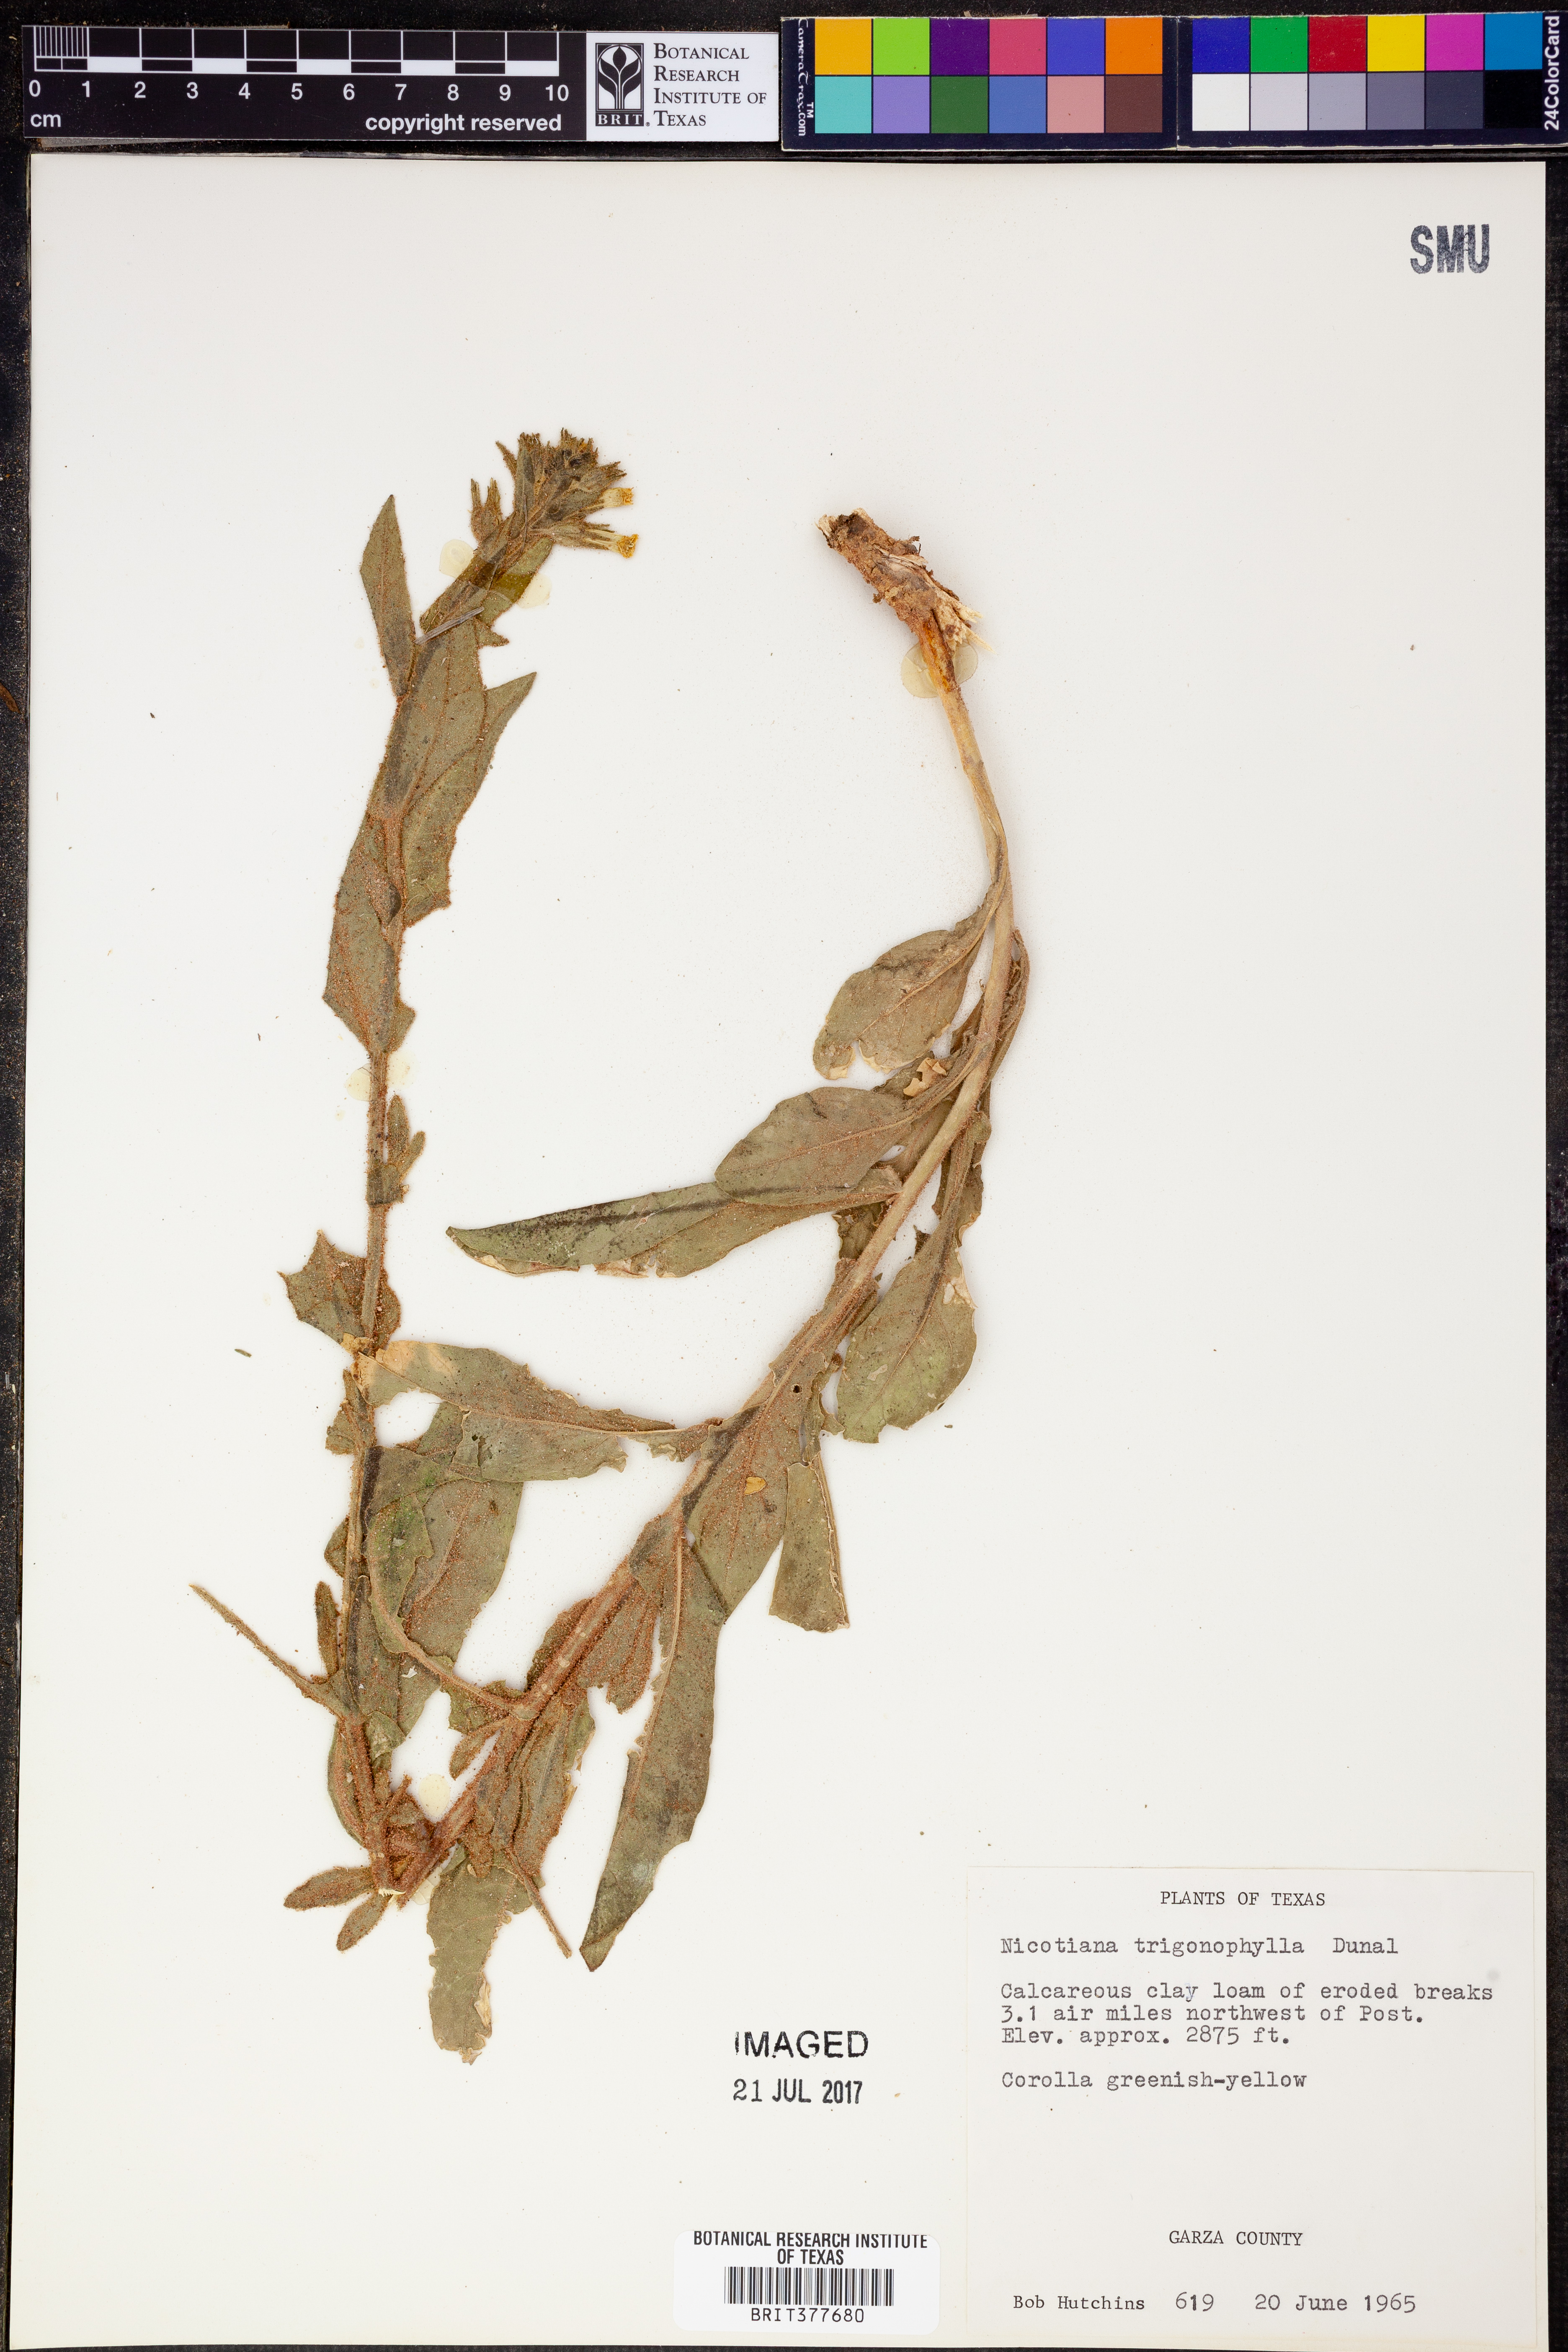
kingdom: Plantae
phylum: Tracheophyta
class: Magnoliopsida
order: Solanales
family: Solanaceae
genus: Nicotiana
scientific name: Nicotiana obtusifolia
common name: Desert tobacco
